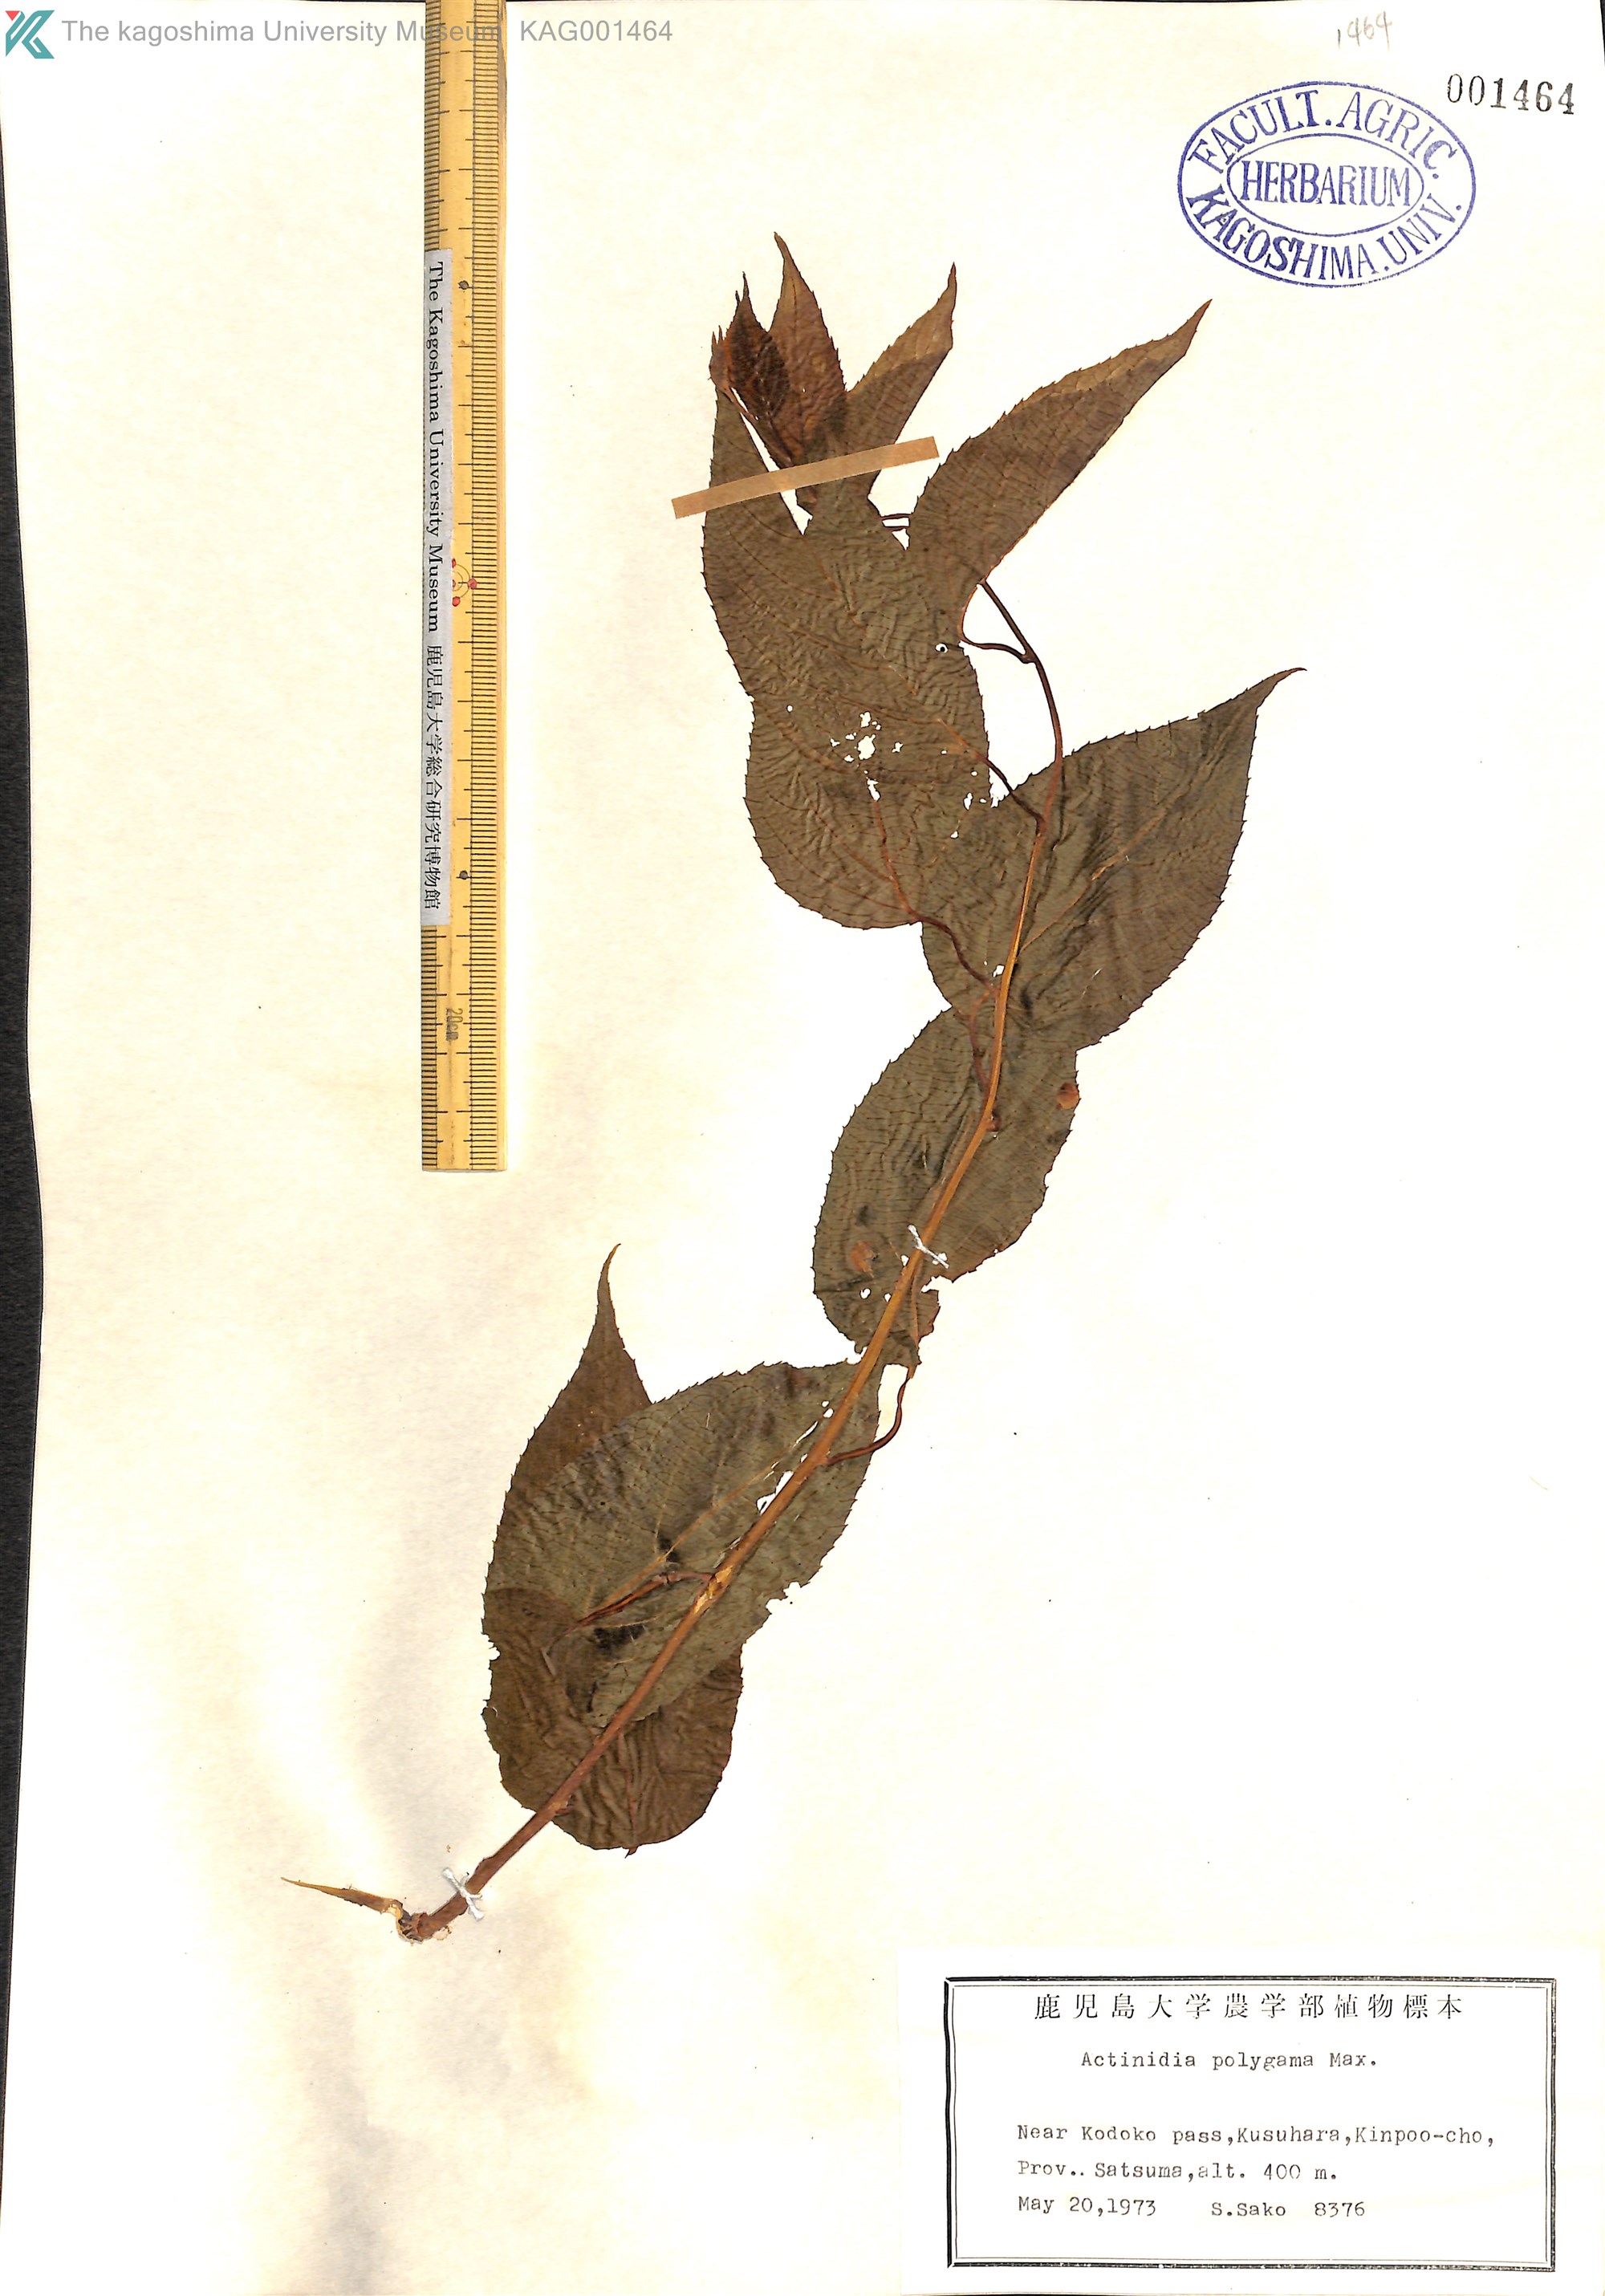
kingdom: Plantae
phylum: Tracheophyta
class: Magnoliopsida
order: Ericales
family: Actinidiaceae
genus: Actinidia
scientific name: Actinidia polygama
